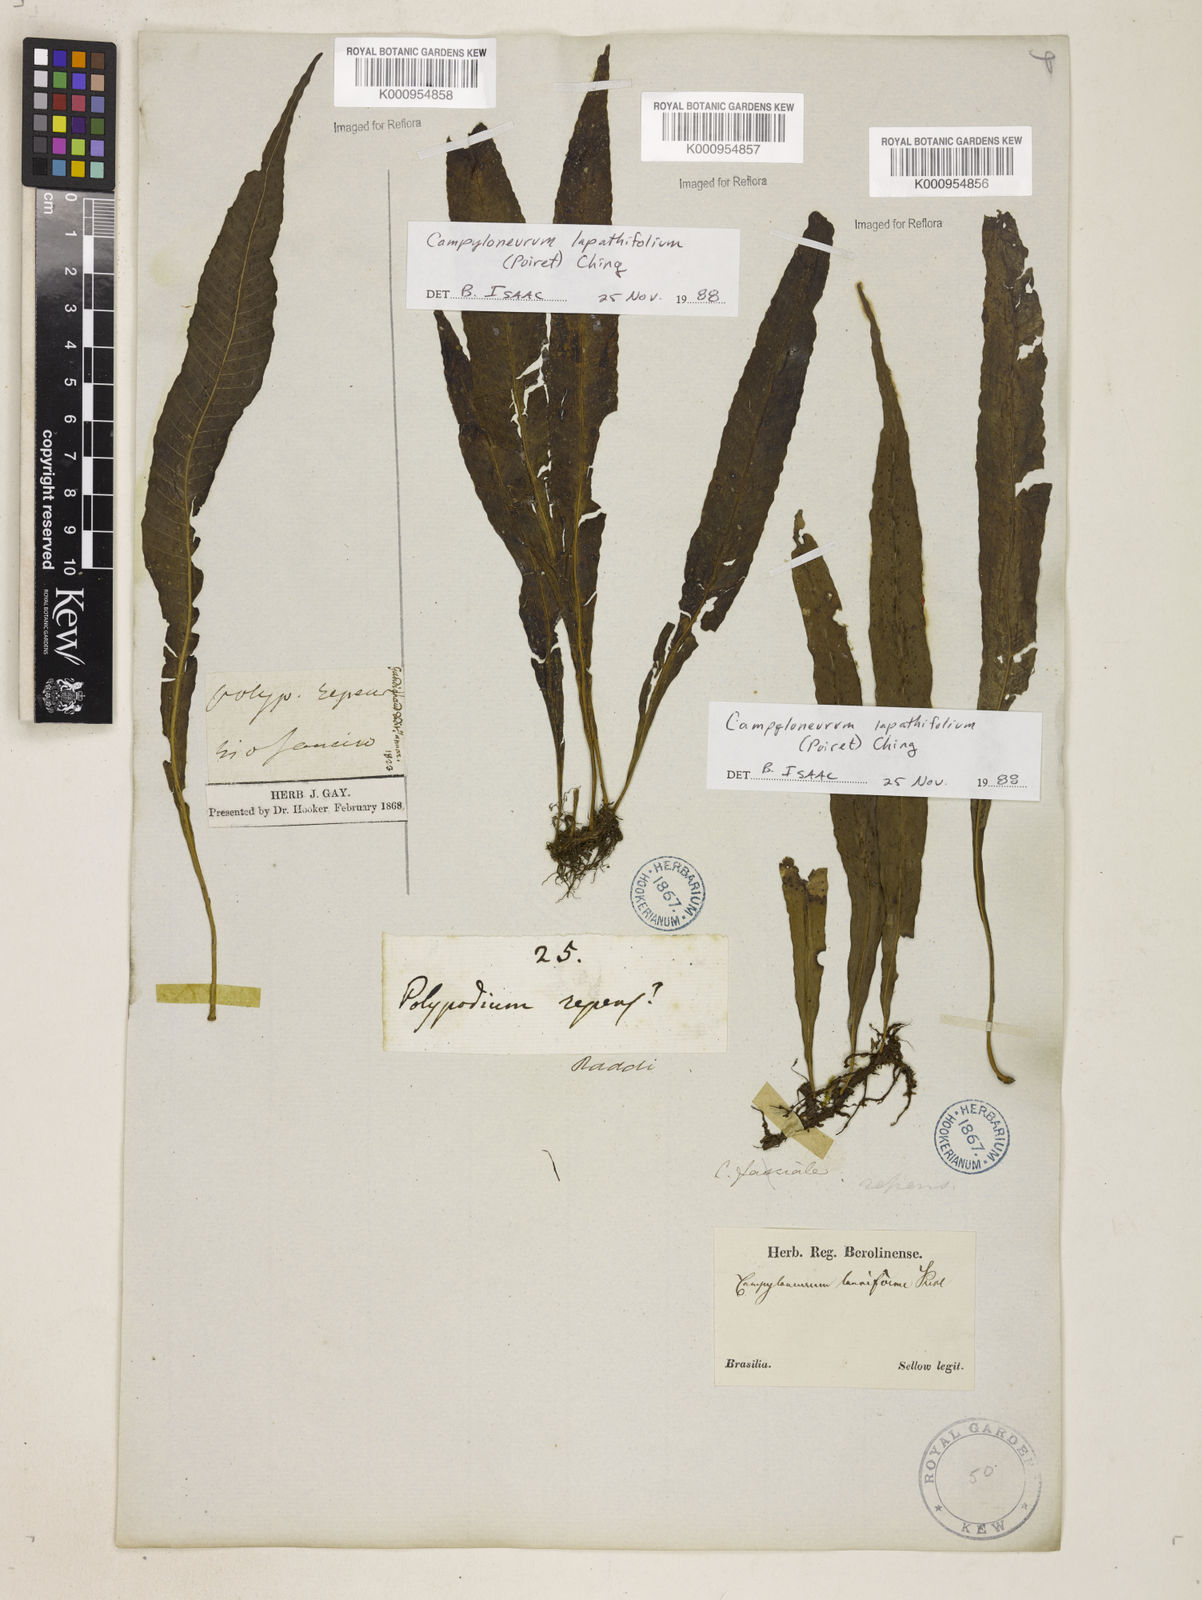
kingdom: Plantae
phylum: Tracheophyta
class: Polypodiopsida
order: Polypodiales
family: Polypodiaceae
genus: Campyloneurum
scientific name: Campyloneurum repens
